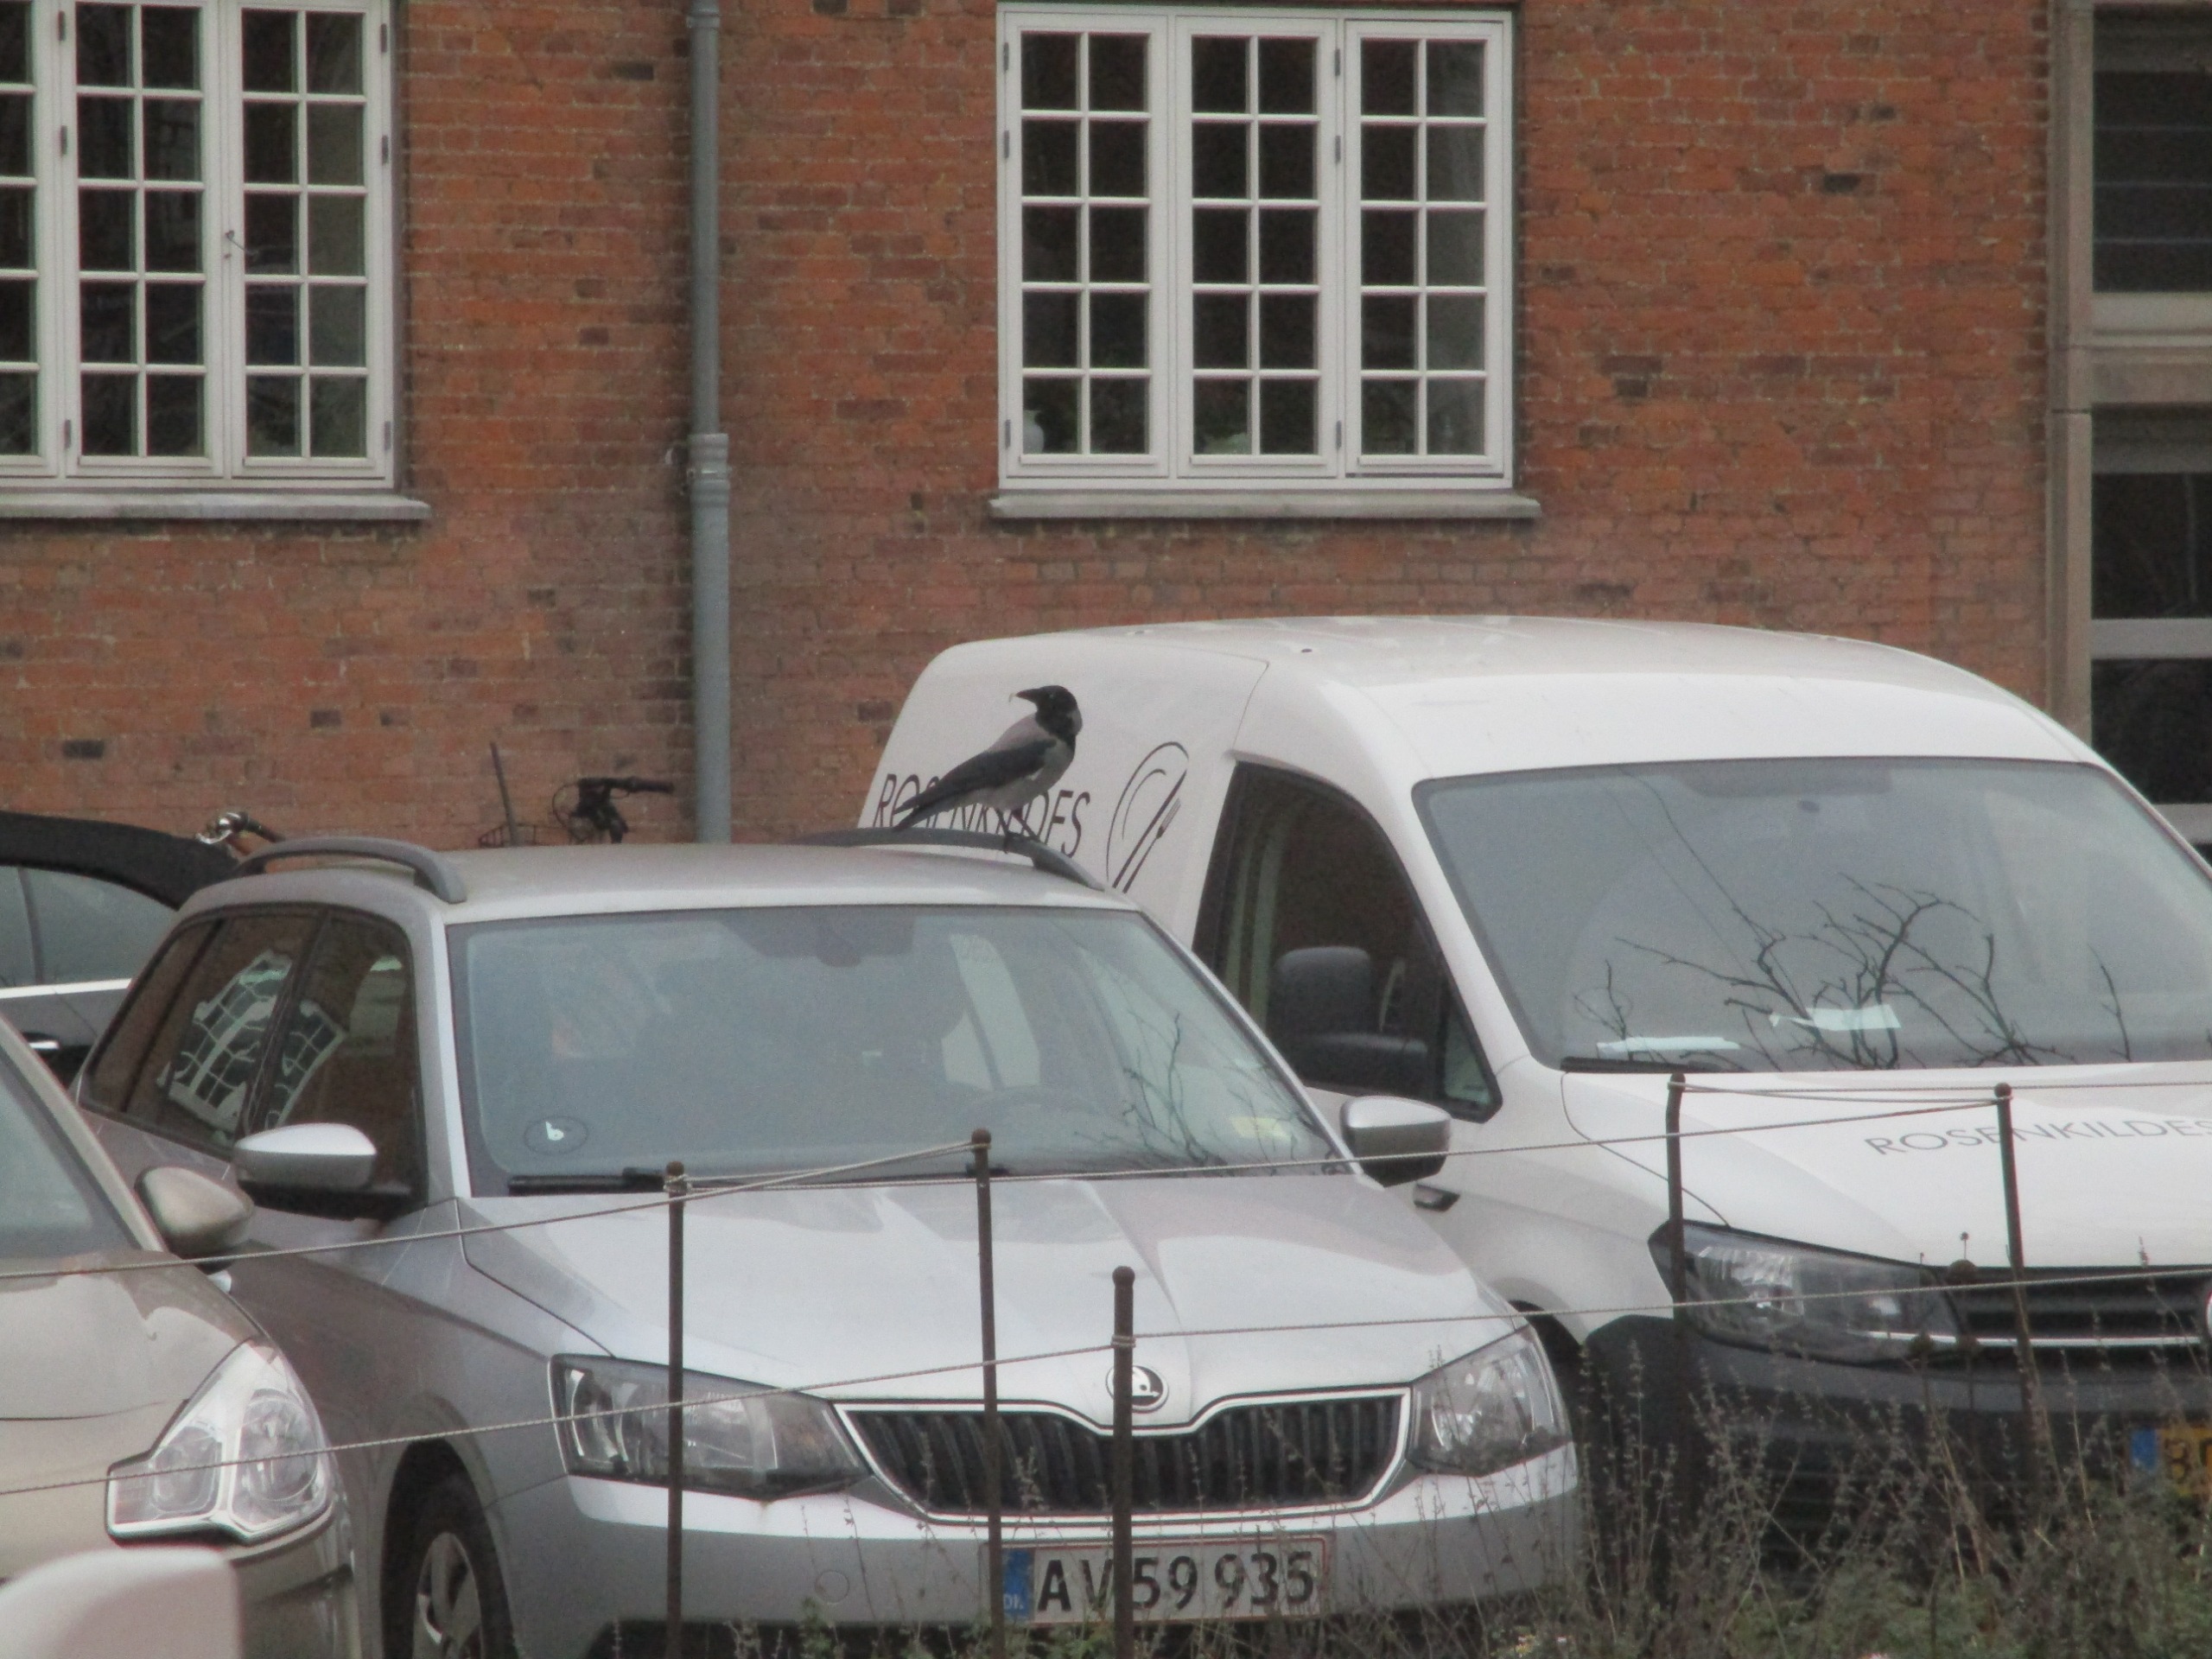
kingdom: Animalia
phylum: Chordata
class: Aves
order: Passeriformes
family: Corvidae
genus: Corvus
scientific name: Corvus cornix
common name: Gråkrage
